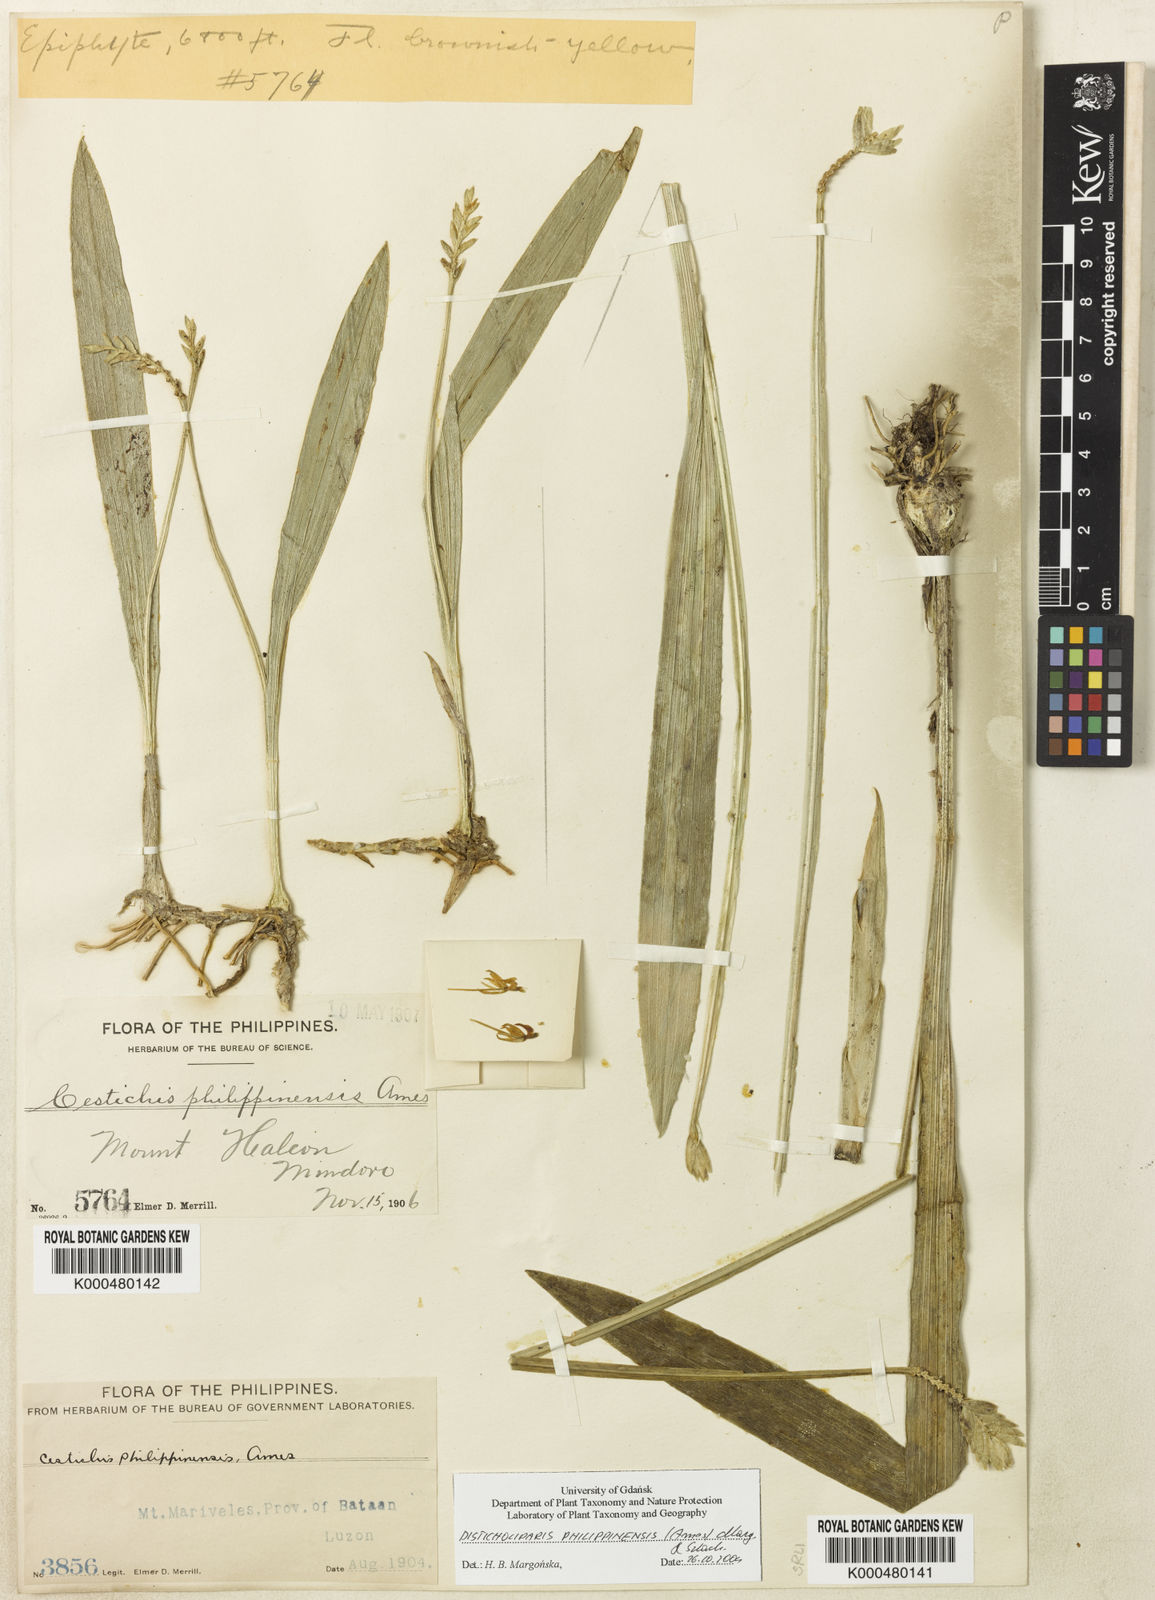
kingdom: Plantae
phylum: Tracheophyta
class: Liliopsida
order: Asparagales
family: Orchidaceae
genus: Liparis
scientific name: Liparis philippinensis
